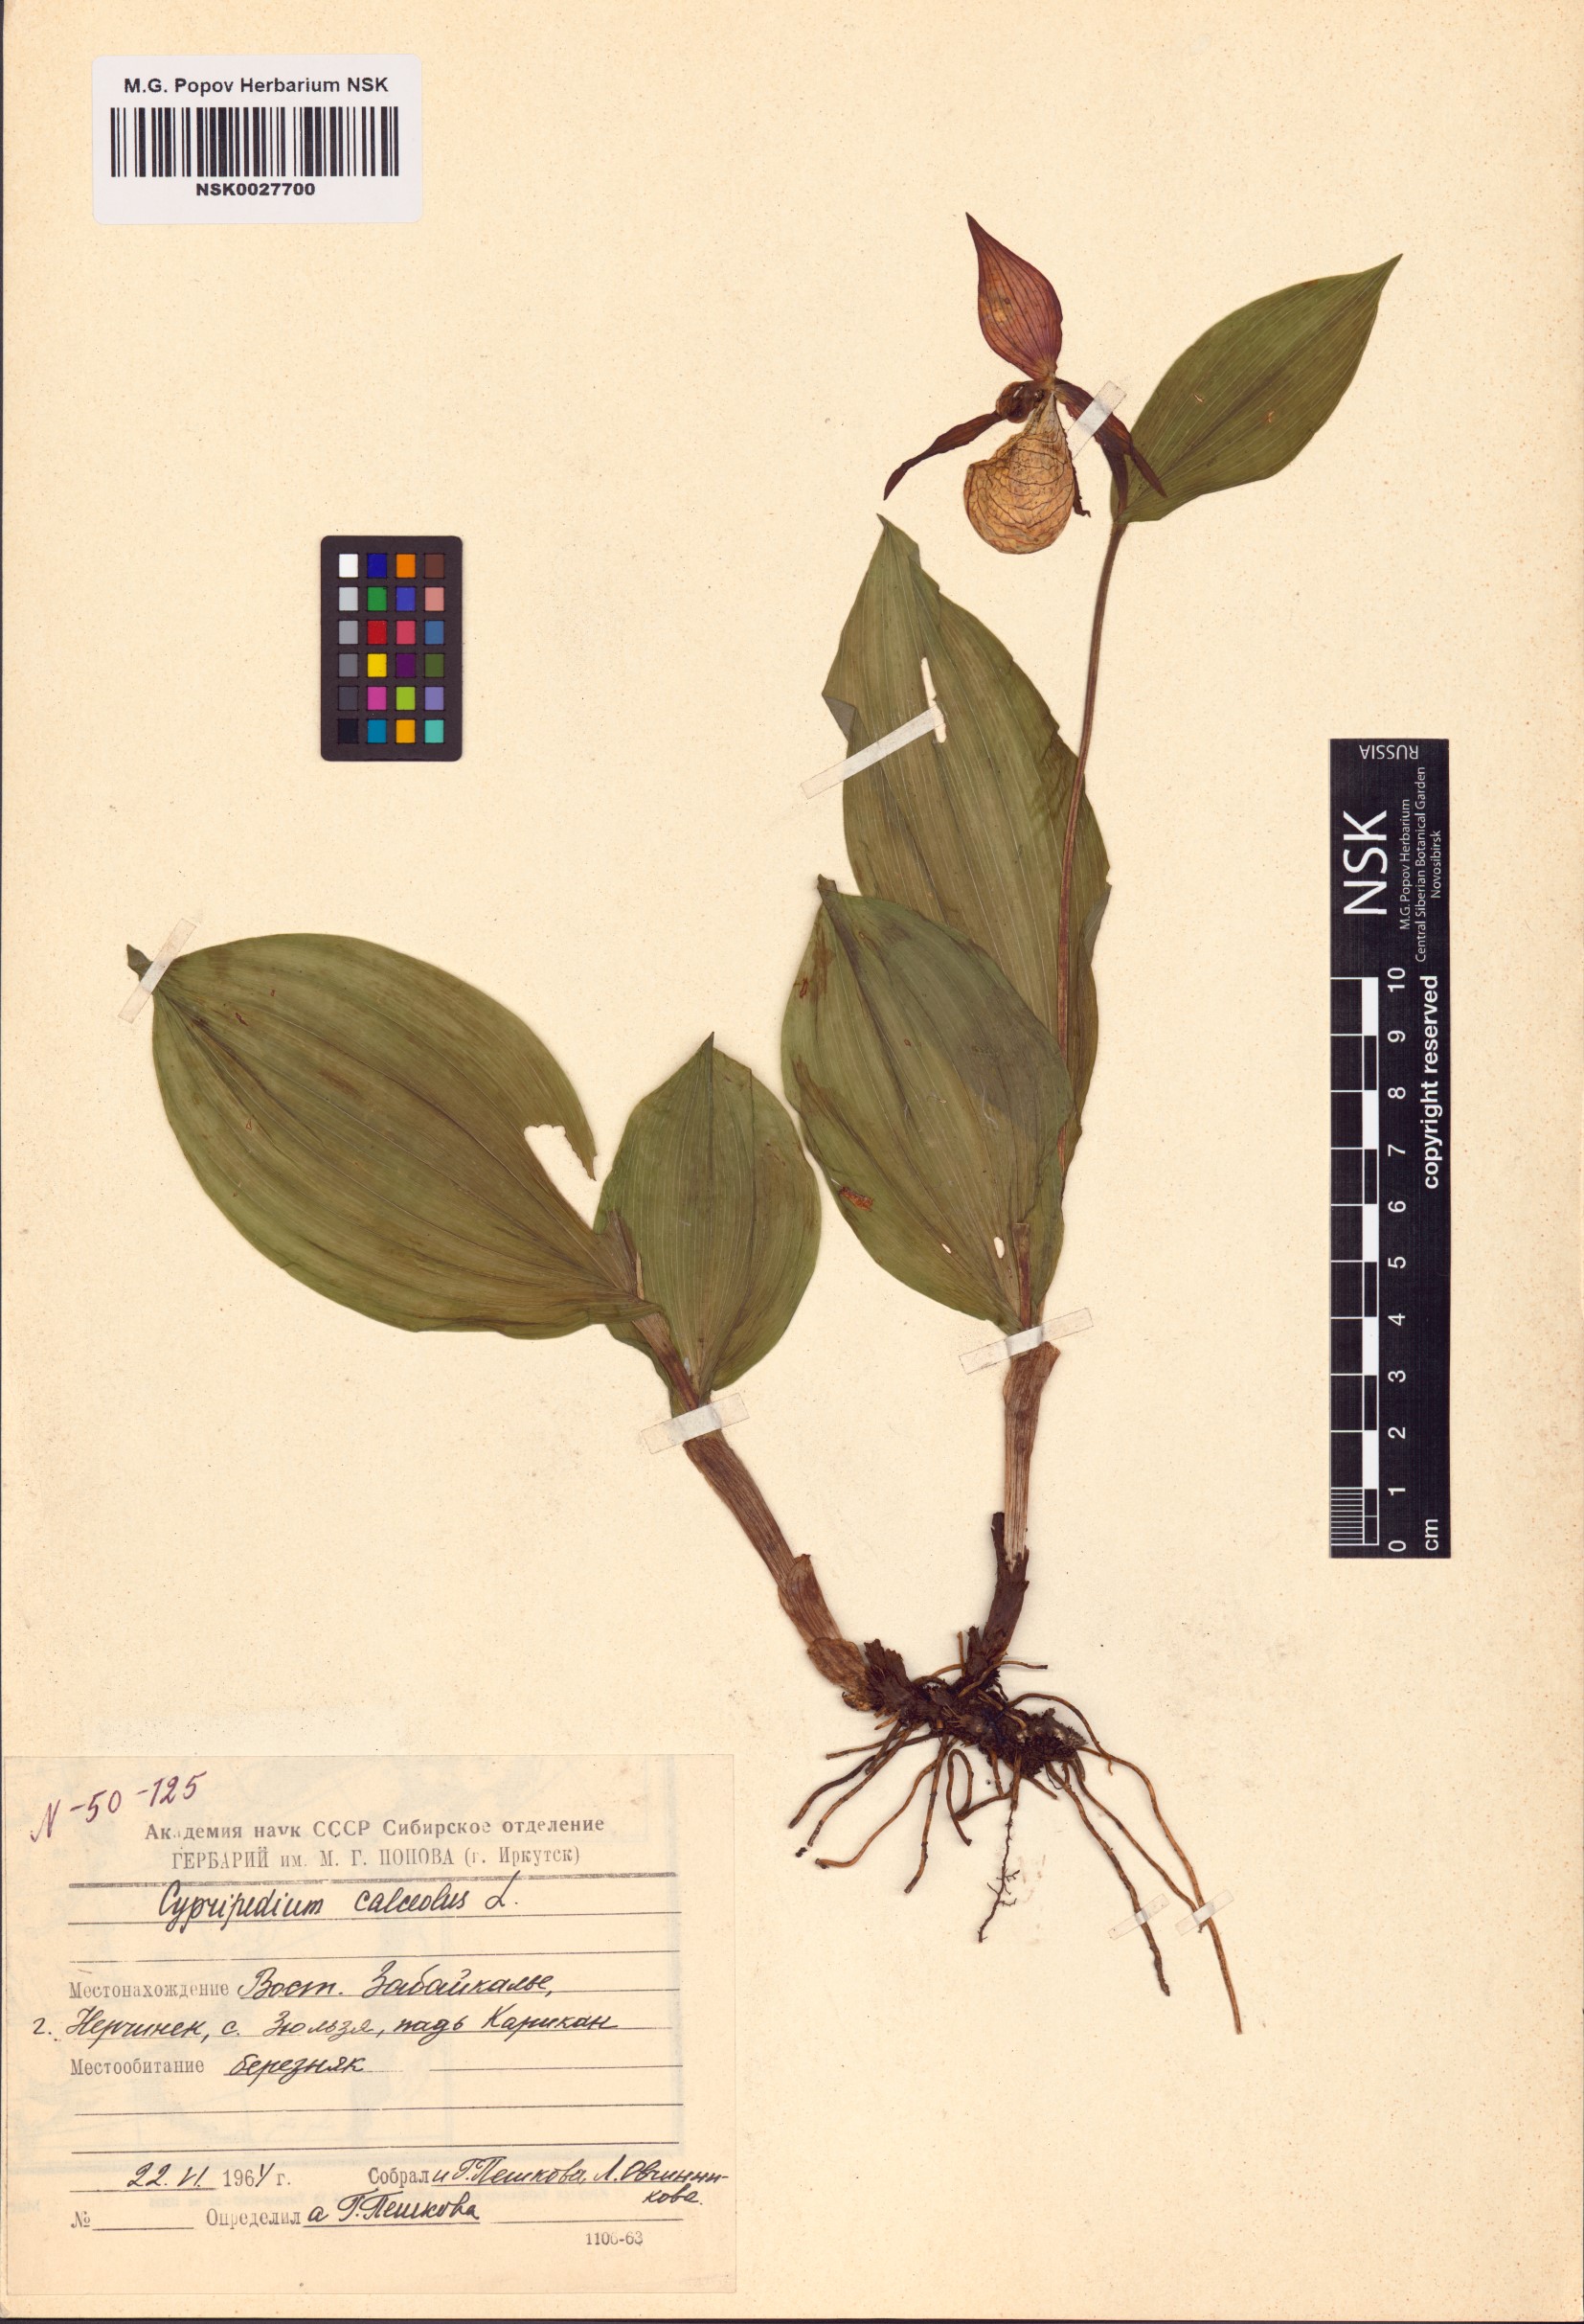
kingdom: Plantae
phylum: Tracheophyta
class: Liliopsida
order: Asparagales
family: Orchidaceae
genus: Cypripedium
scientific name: Cypripedium calceolus
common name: Lady's-slipper
